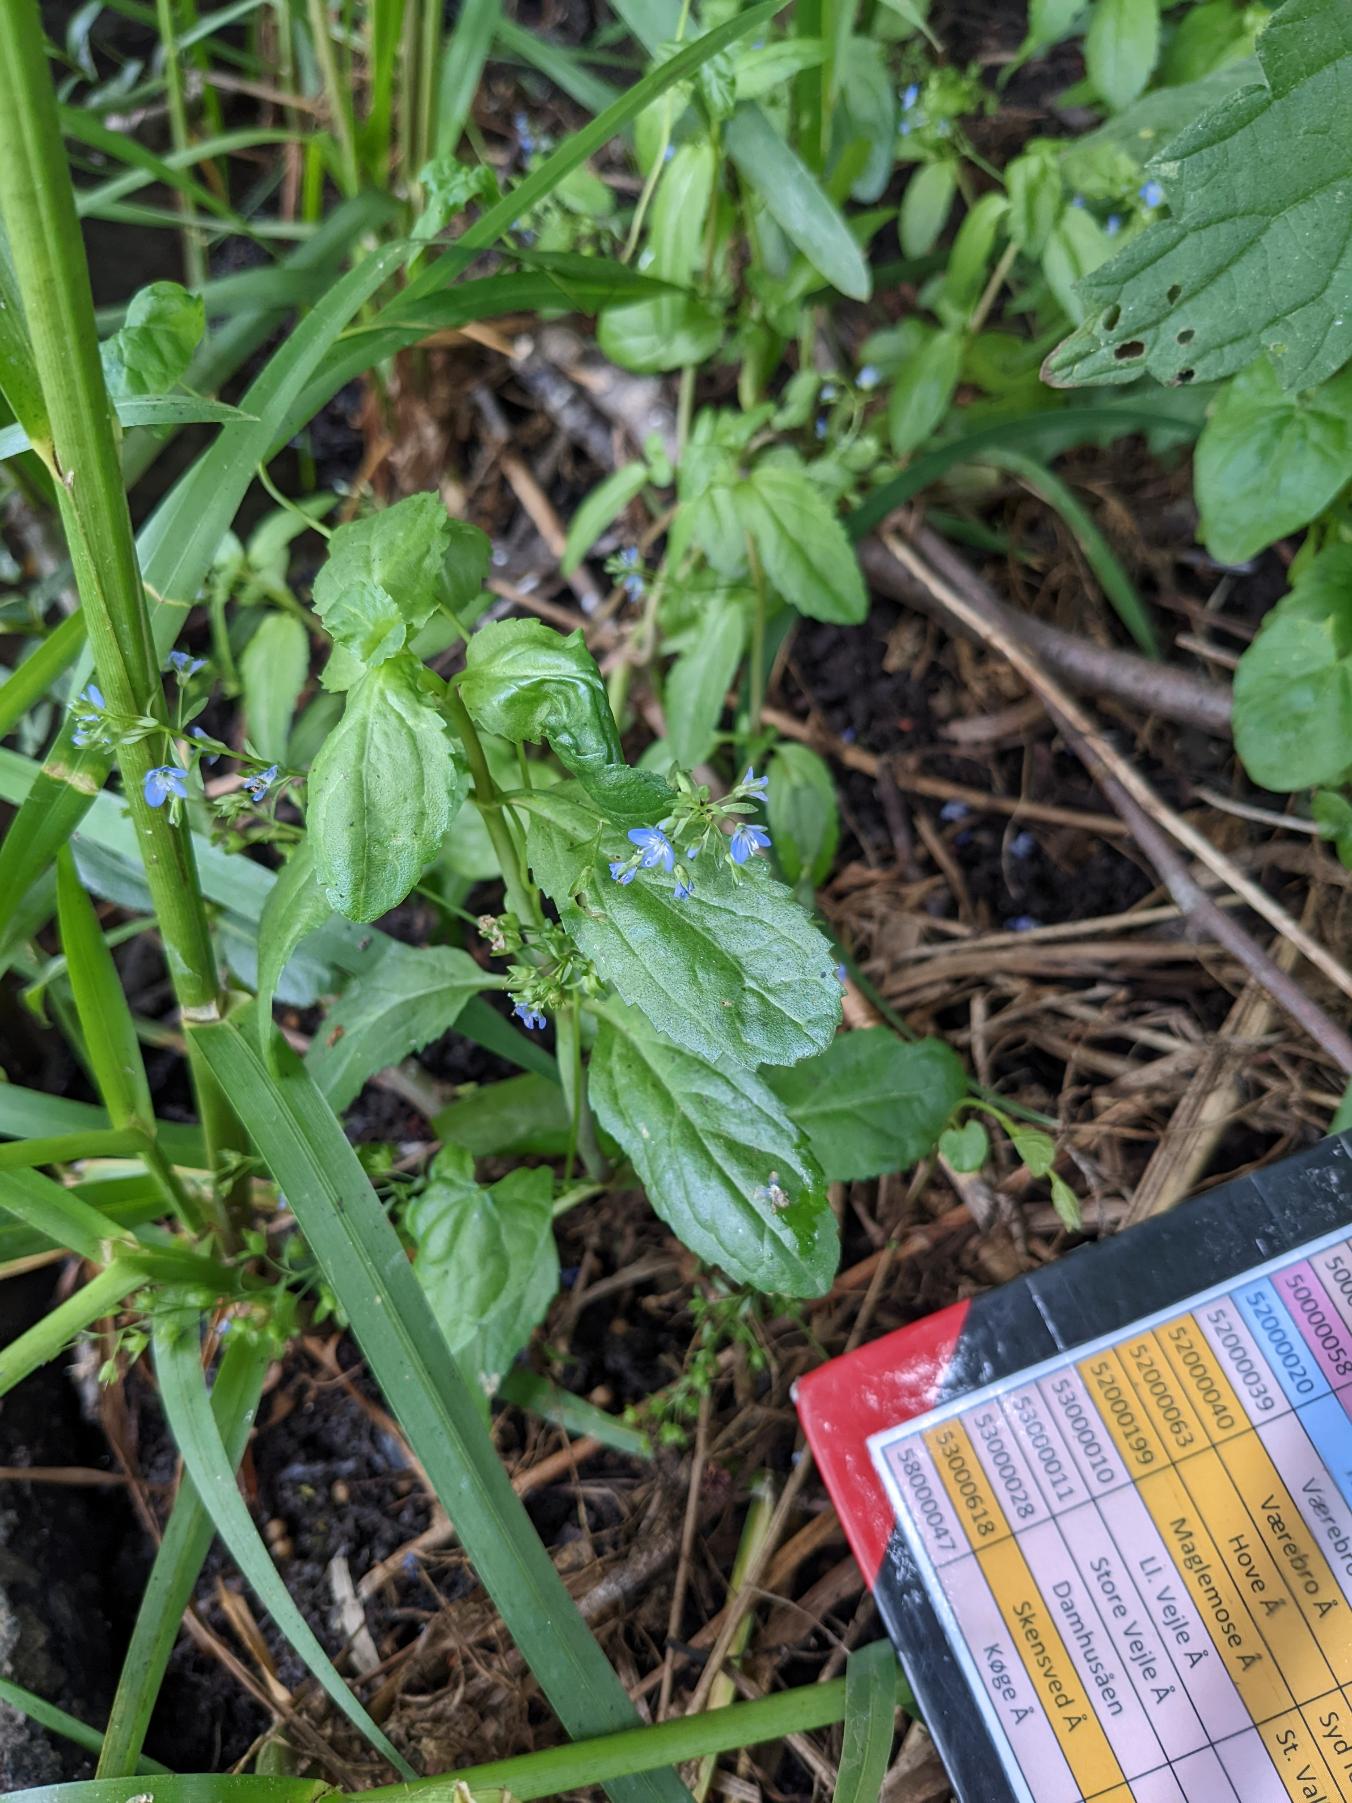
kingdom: Plantae
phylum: Tracheophyta
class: Magnoliopsida
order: Lamiales
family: Plantaginaceae
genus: Veronica
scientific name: Veronica beccabunga
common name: Tykbladet ærenpris
